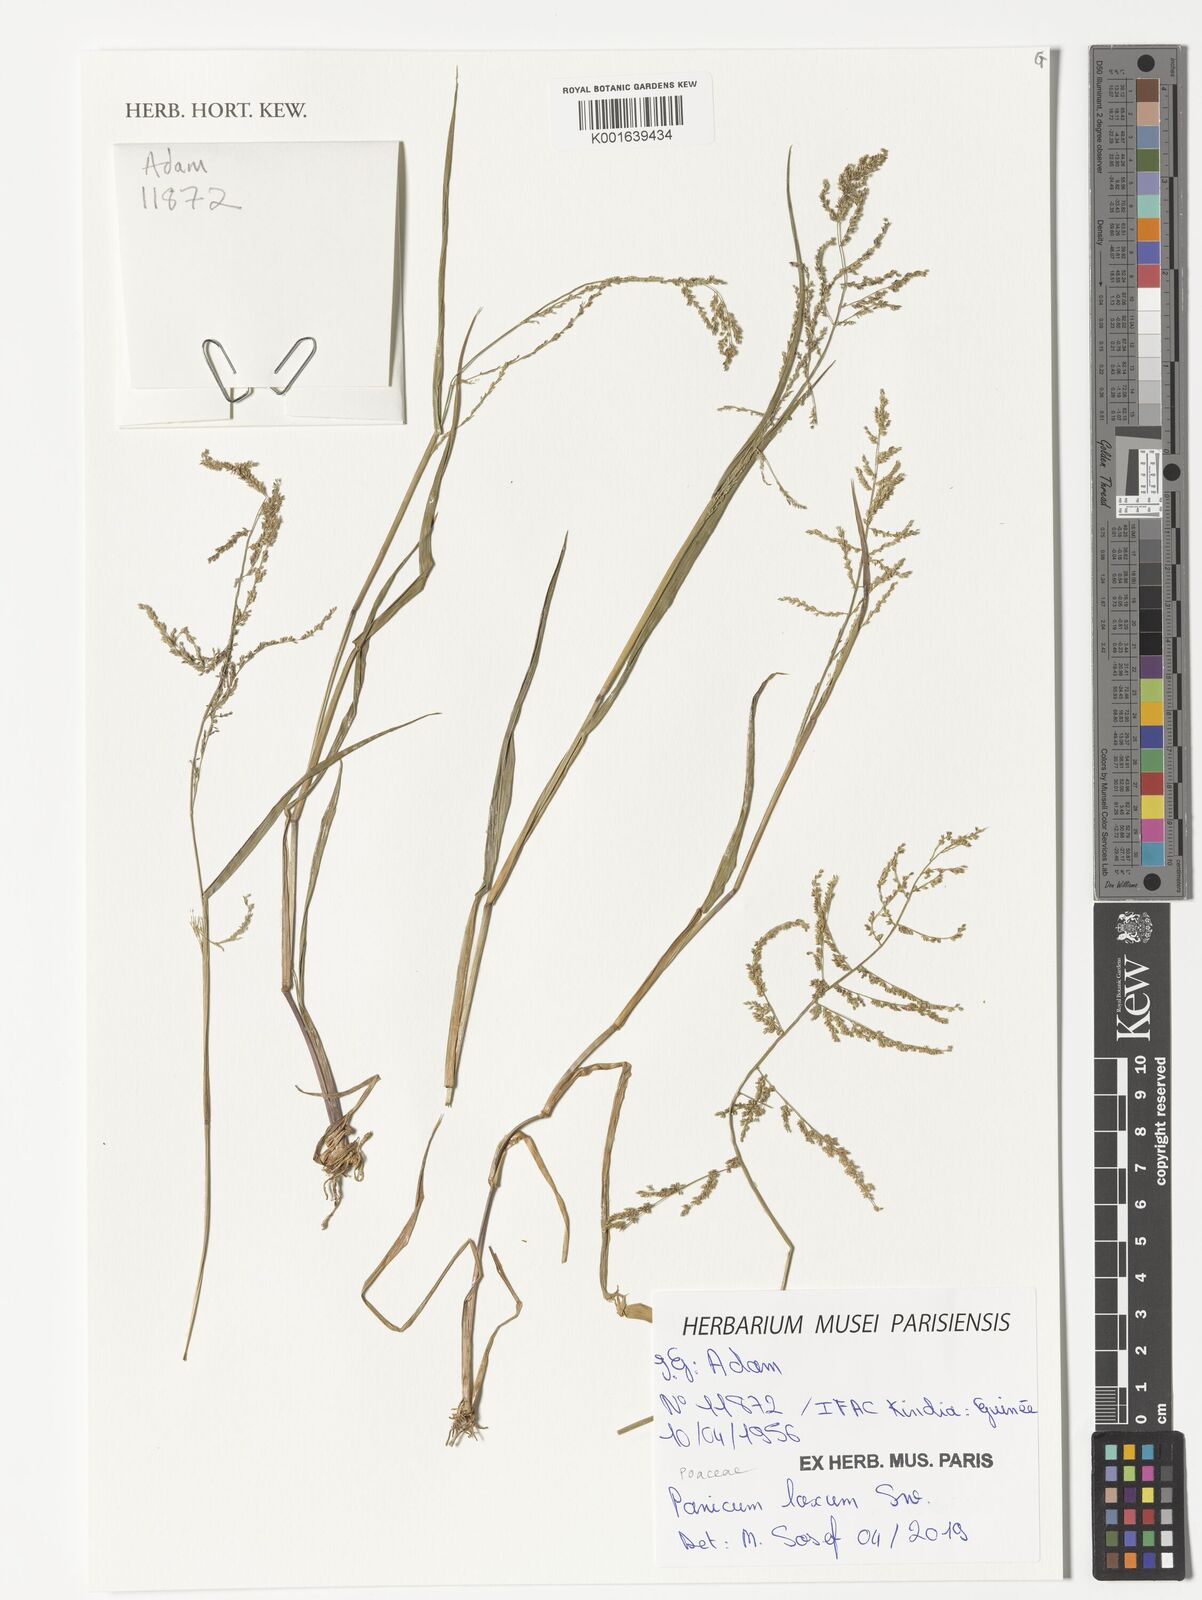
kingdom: Plantae
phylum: Tracheophyta
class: Liliopsida
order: Poales
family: Poaceae
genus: Steinchisma
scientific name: Steinchisma laxum
